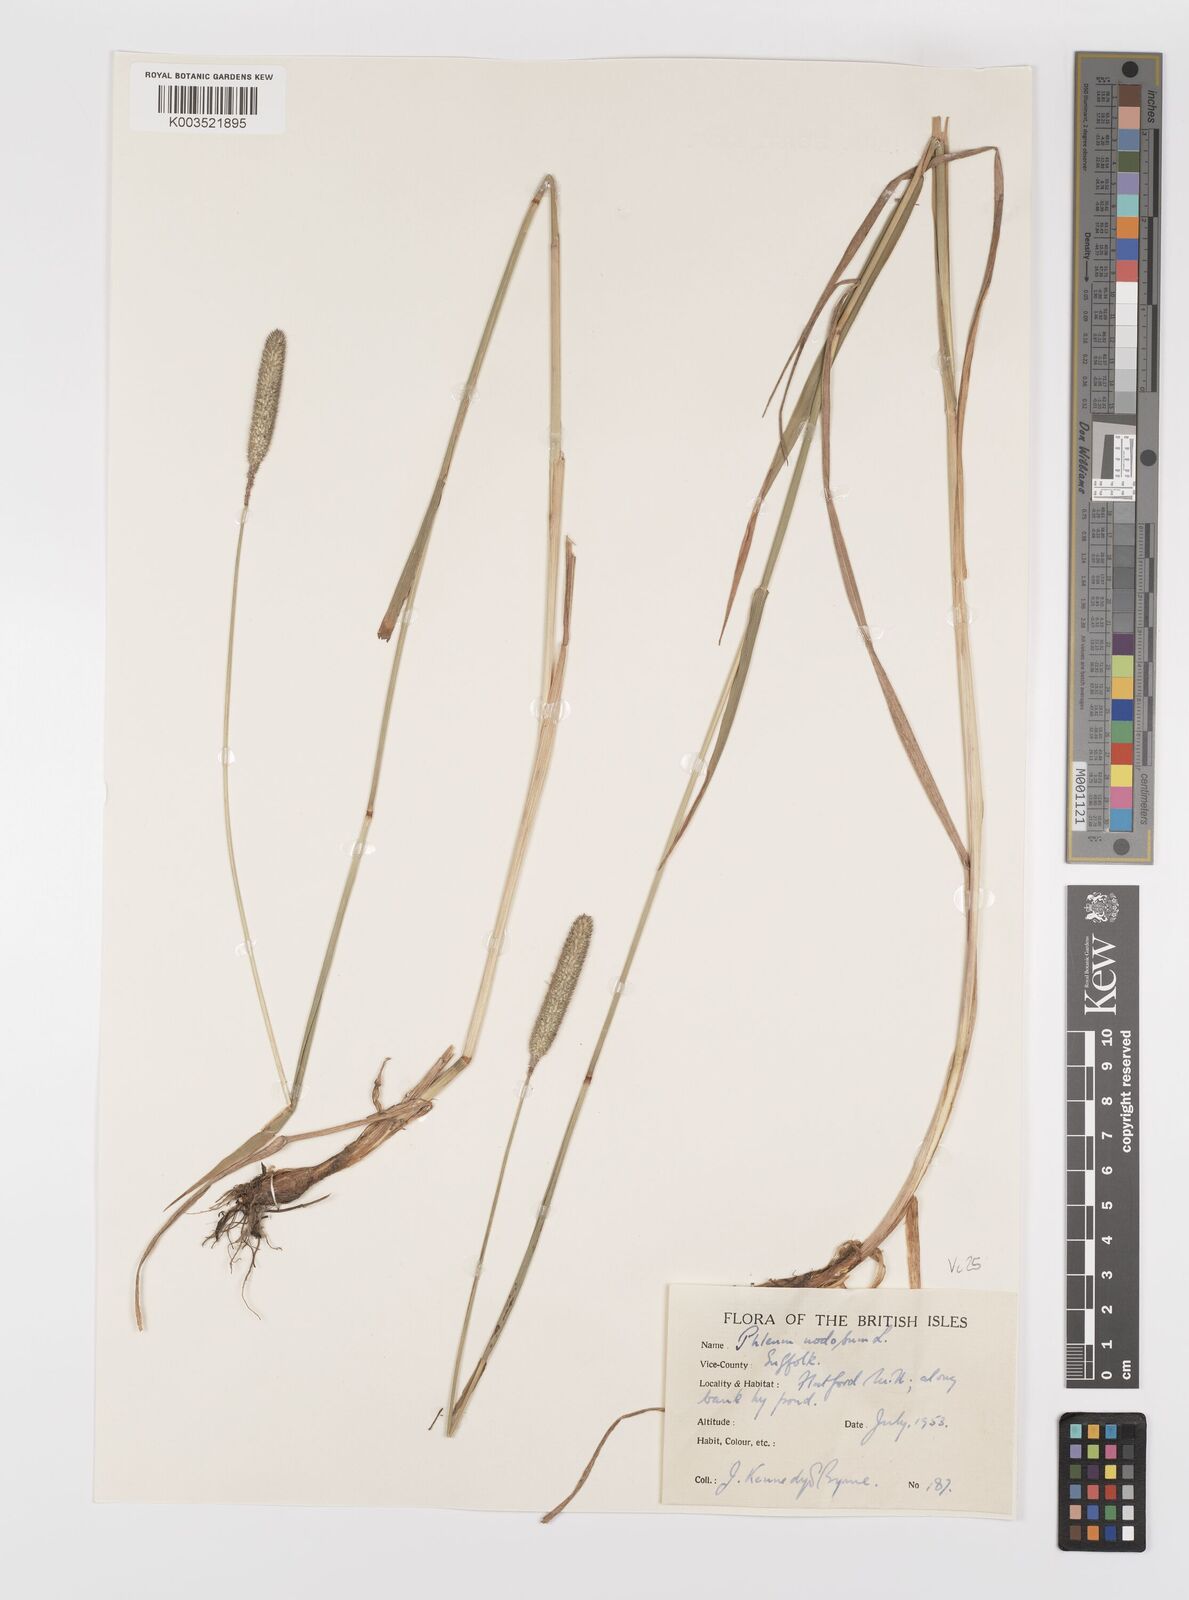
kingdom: Plantae
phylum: Tracheophyta
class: Liliopsida
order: Poales
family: Poaceae
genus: Phleum
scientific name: Phleum bertolonii
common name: Smaller cat's-tail
